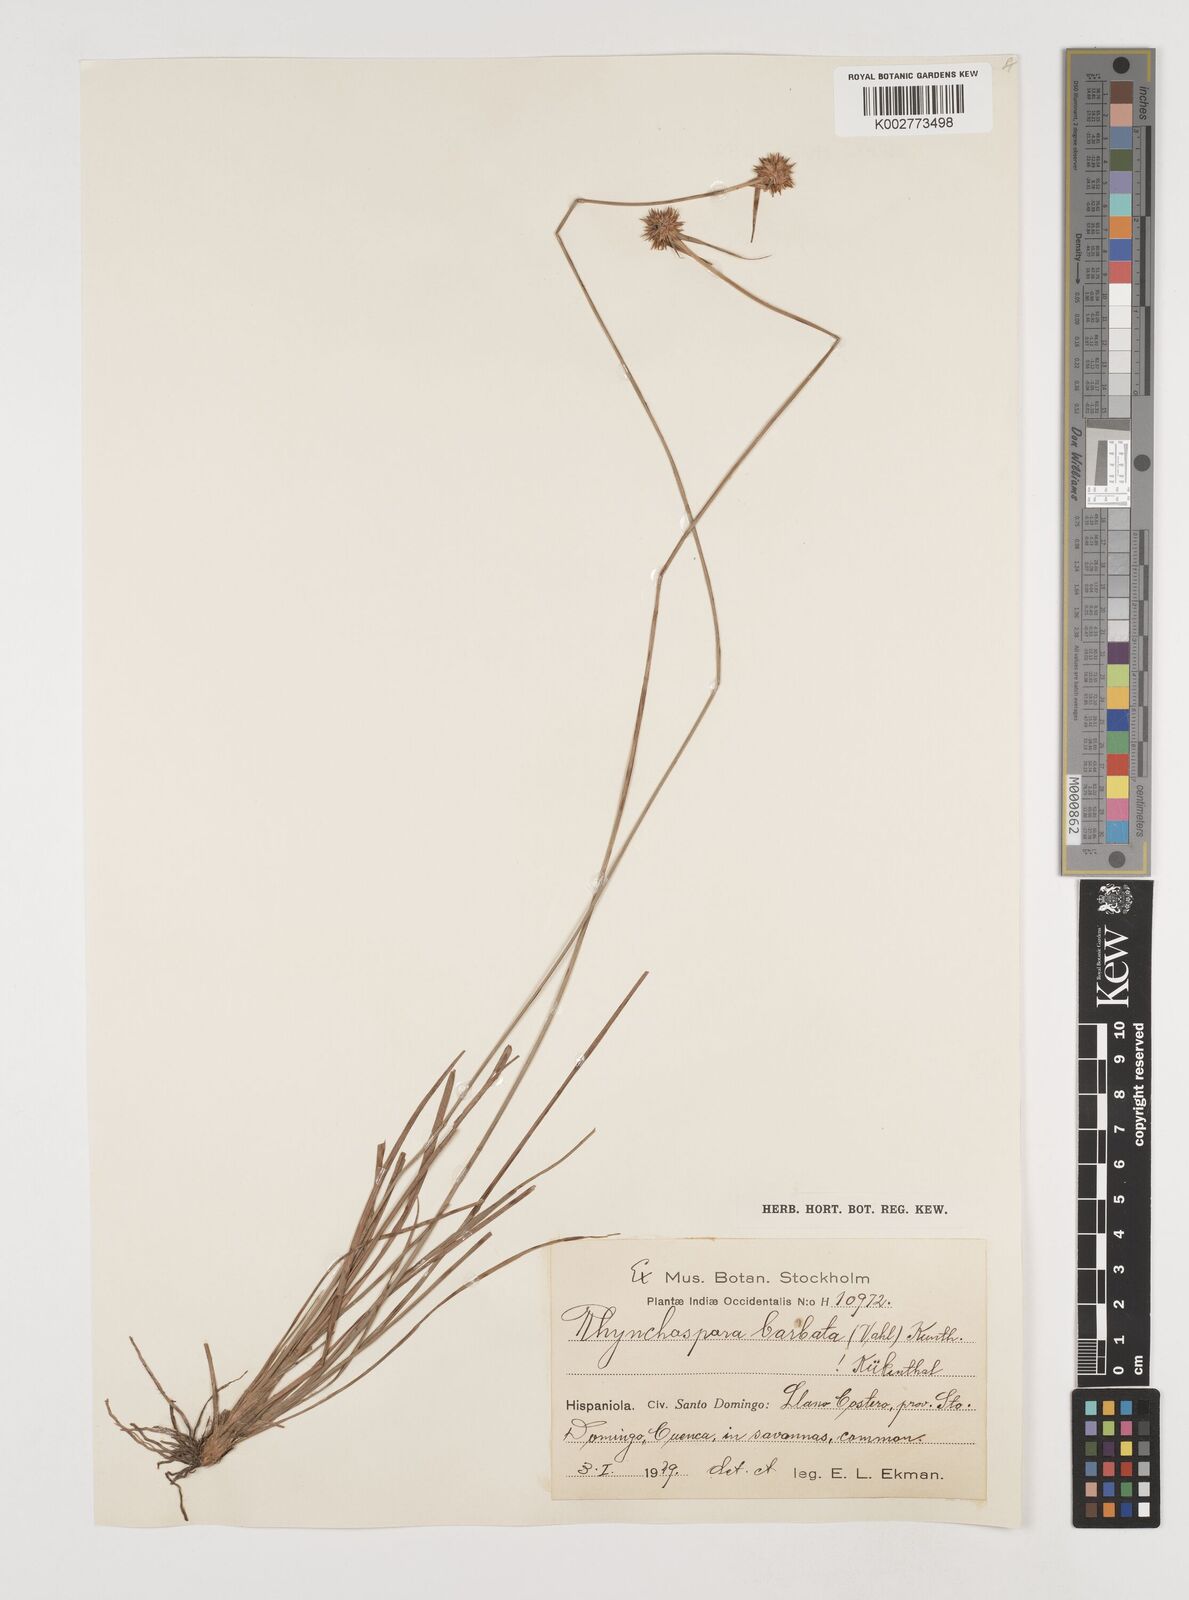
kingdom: Plantae
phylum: Tracheophyta
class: Liliopsida
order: Poales
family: Cyperaceae
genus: Rhynchospora
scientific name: Rhynchospora barbata
